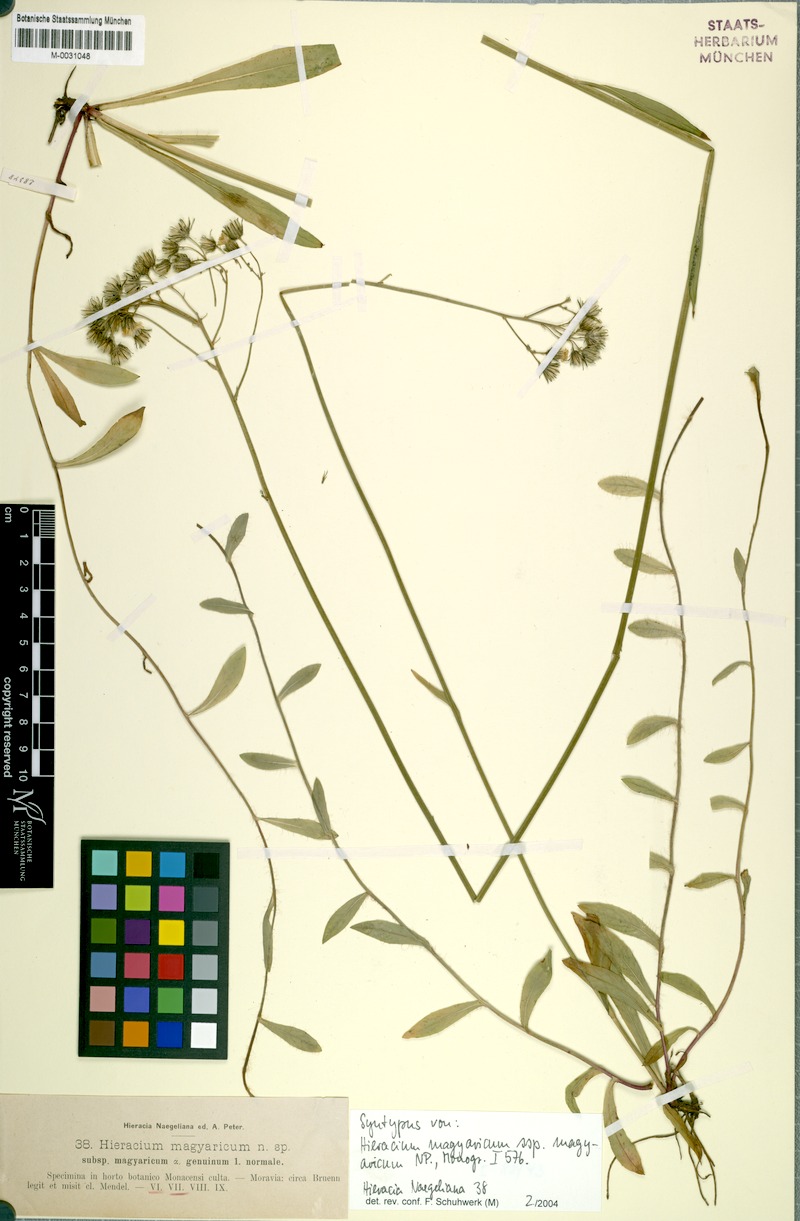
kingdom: Plantae
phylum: Tracheophyta
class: Magnoliopsida
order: Asterales
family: Asteraceae
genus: Pilosella
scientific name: Pilosella bauhini
